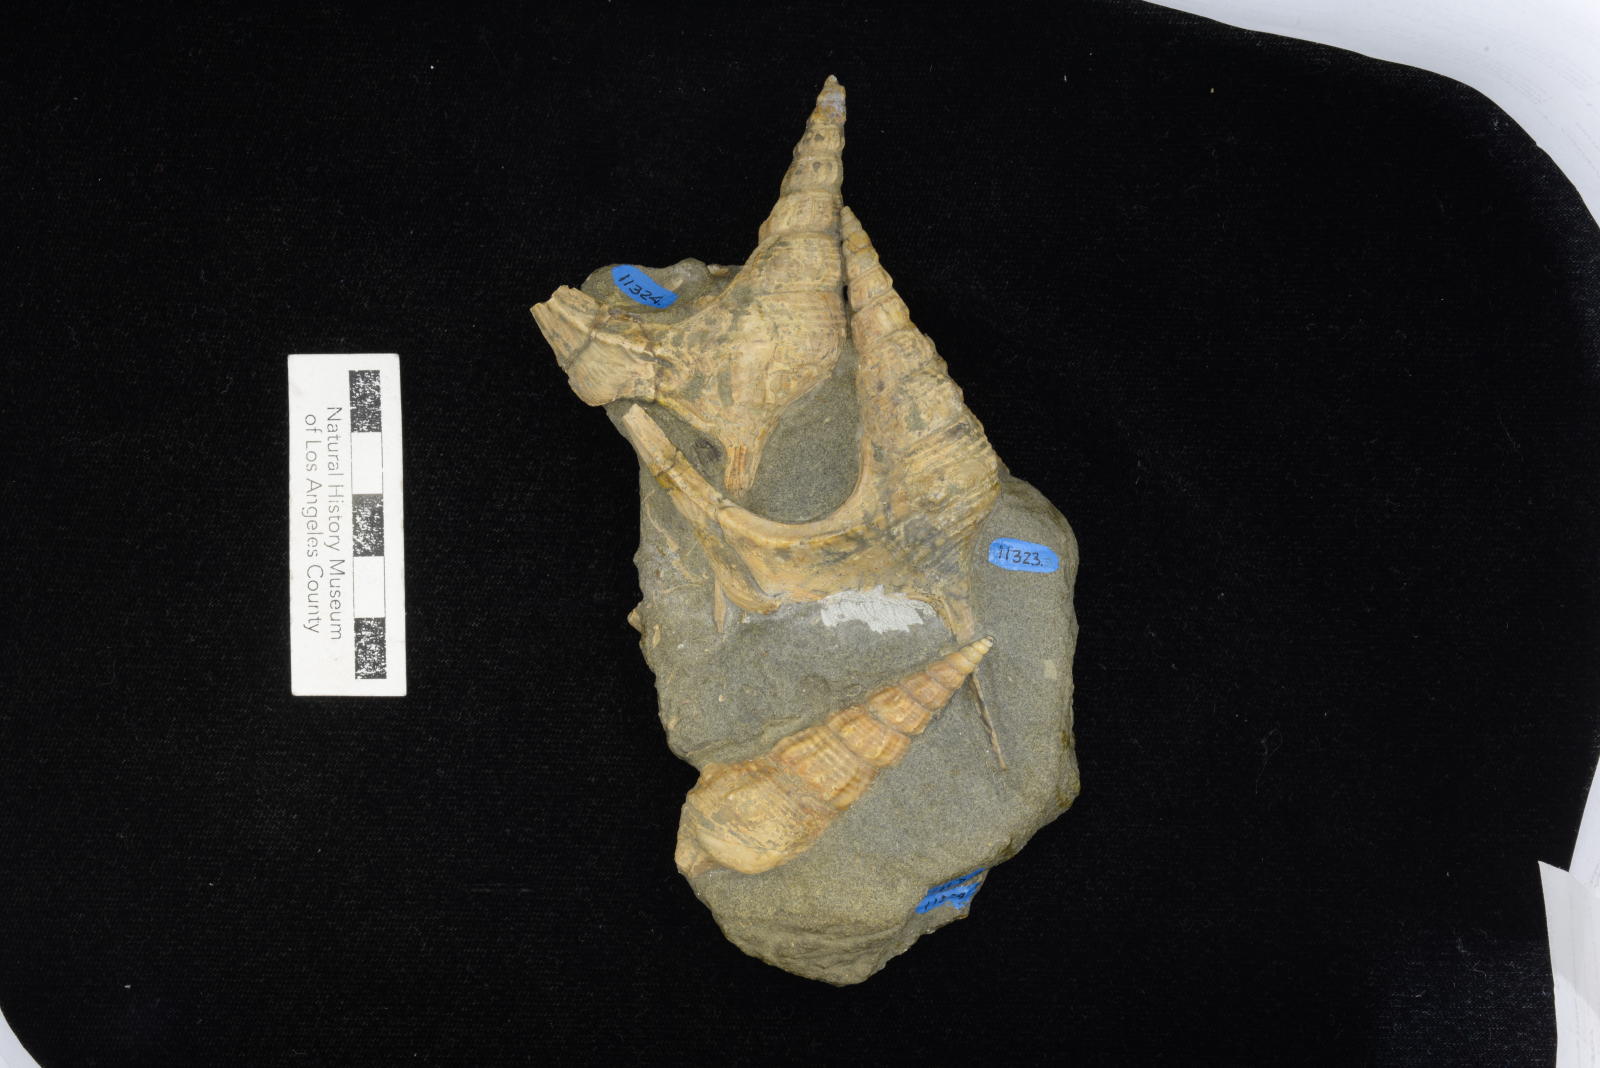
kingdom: Animalia
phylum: Mollusca
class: Gastropoda
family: Nerineidae
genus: Plesioptygmatis
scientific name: Plesioptygmatis Nerinea pseudoconvexa
